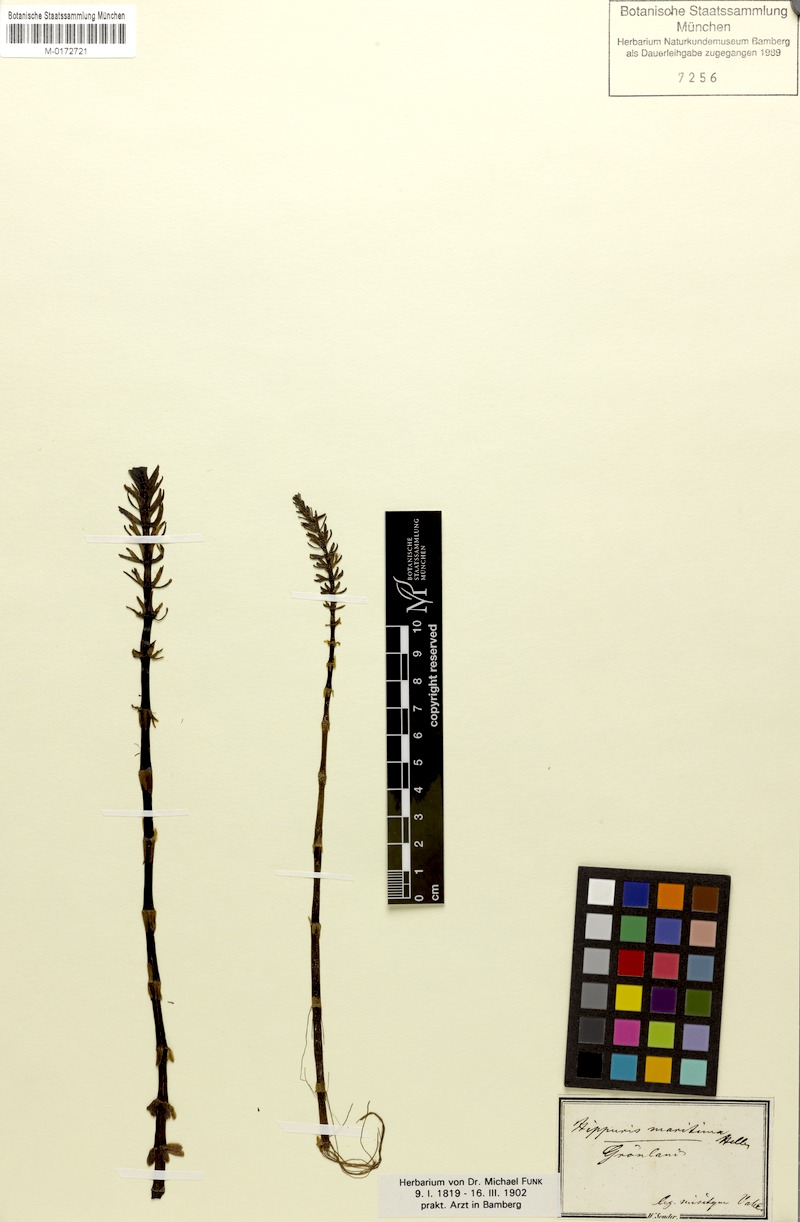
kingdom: Plantae
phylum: Tracheophyta
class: Magnoliopsida
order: Lamiales
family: Plantaginaceae
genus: Hippuris
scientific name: Hippuris vulgaris
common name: Mare's-tail
